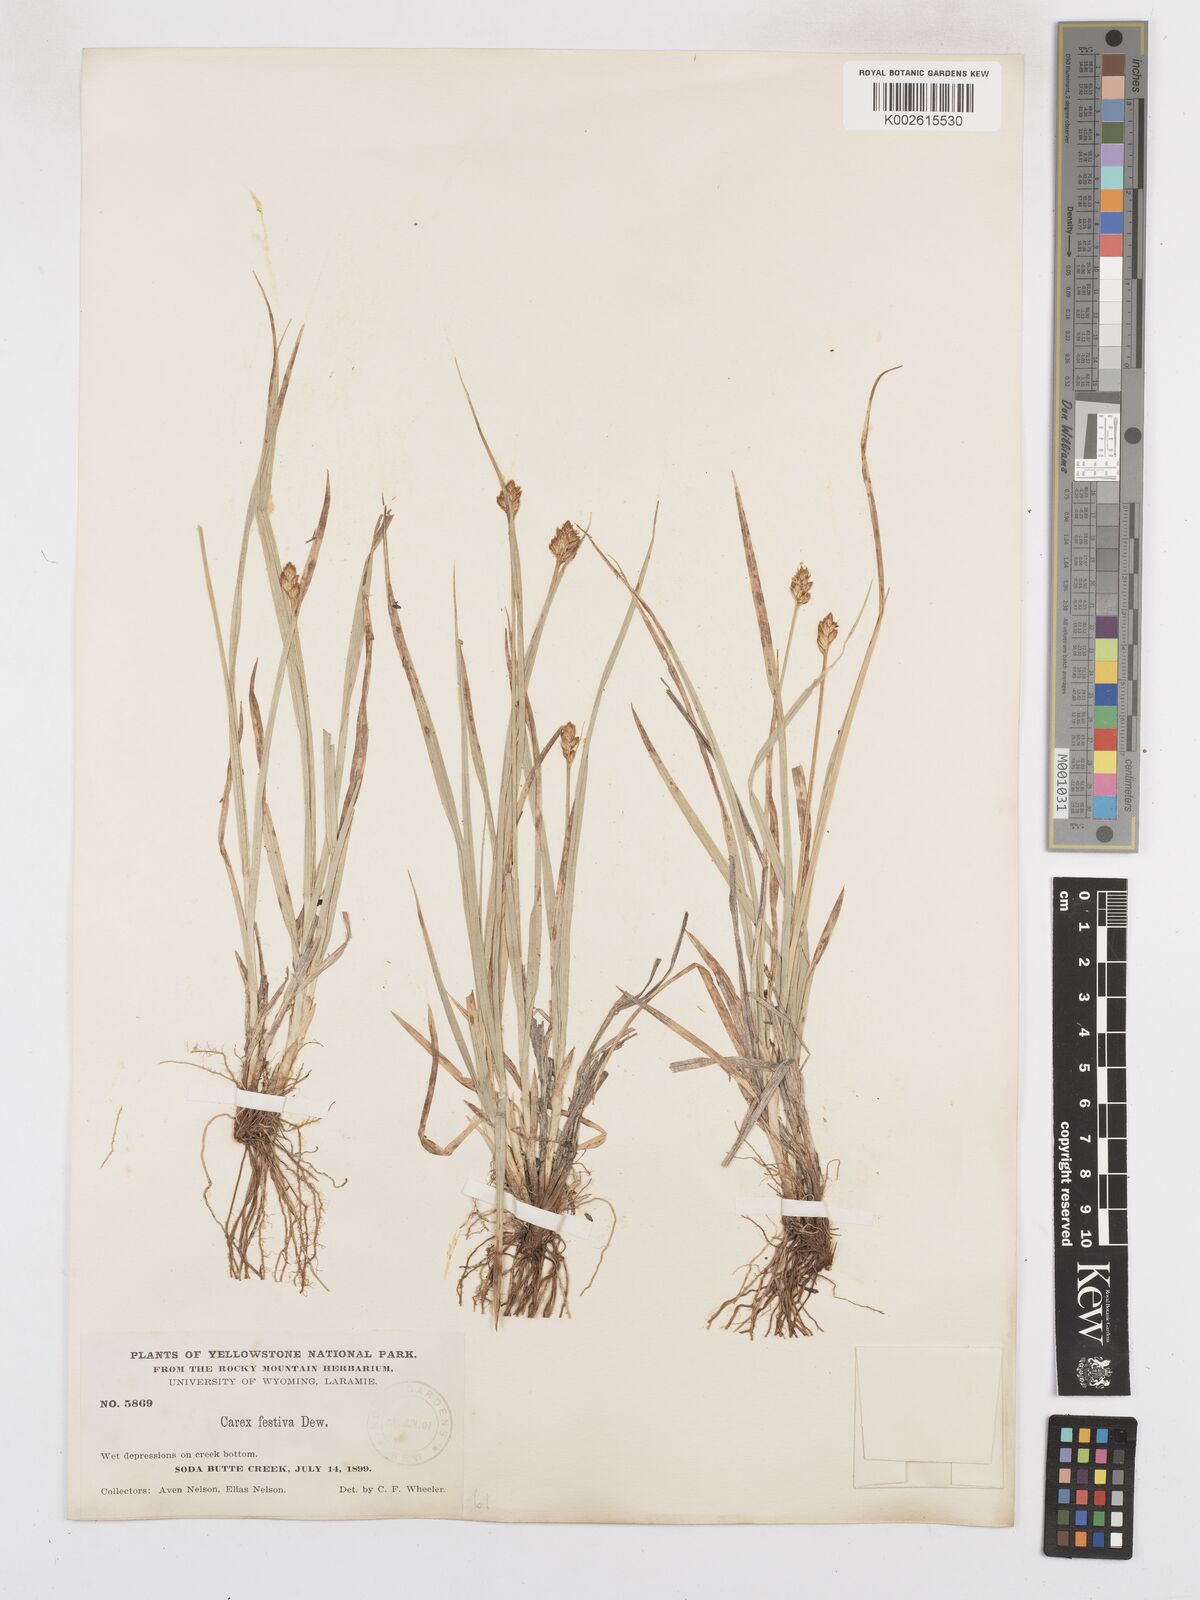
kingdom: Plantae
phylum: Tracheophyta
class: Liliopsida
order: Poales
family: Cyperaceae
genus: Carex
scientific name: Carex subfusca
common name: Brown sedge
